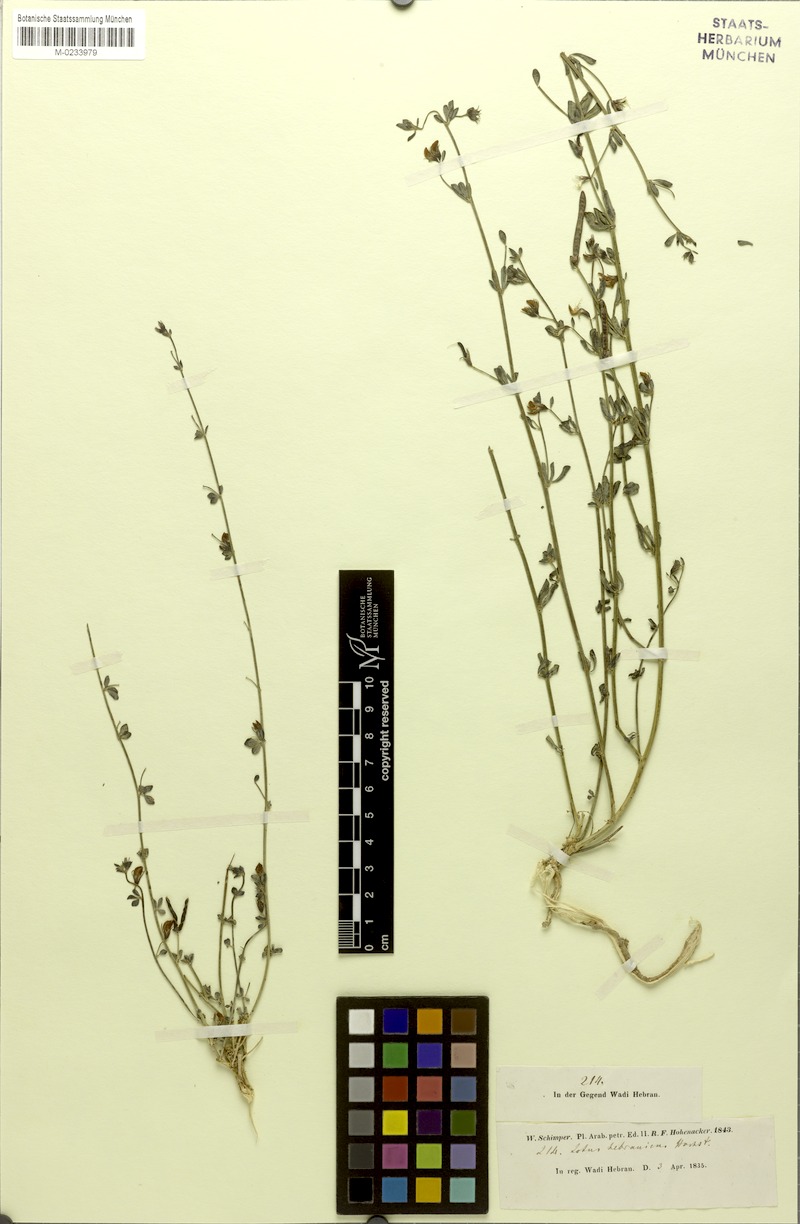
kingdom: Plantae
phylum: Tracheophyta
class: Magnoliopsida
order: Fabales
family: Fabaceae
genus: Lotus
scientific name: Lotus hebranicus
